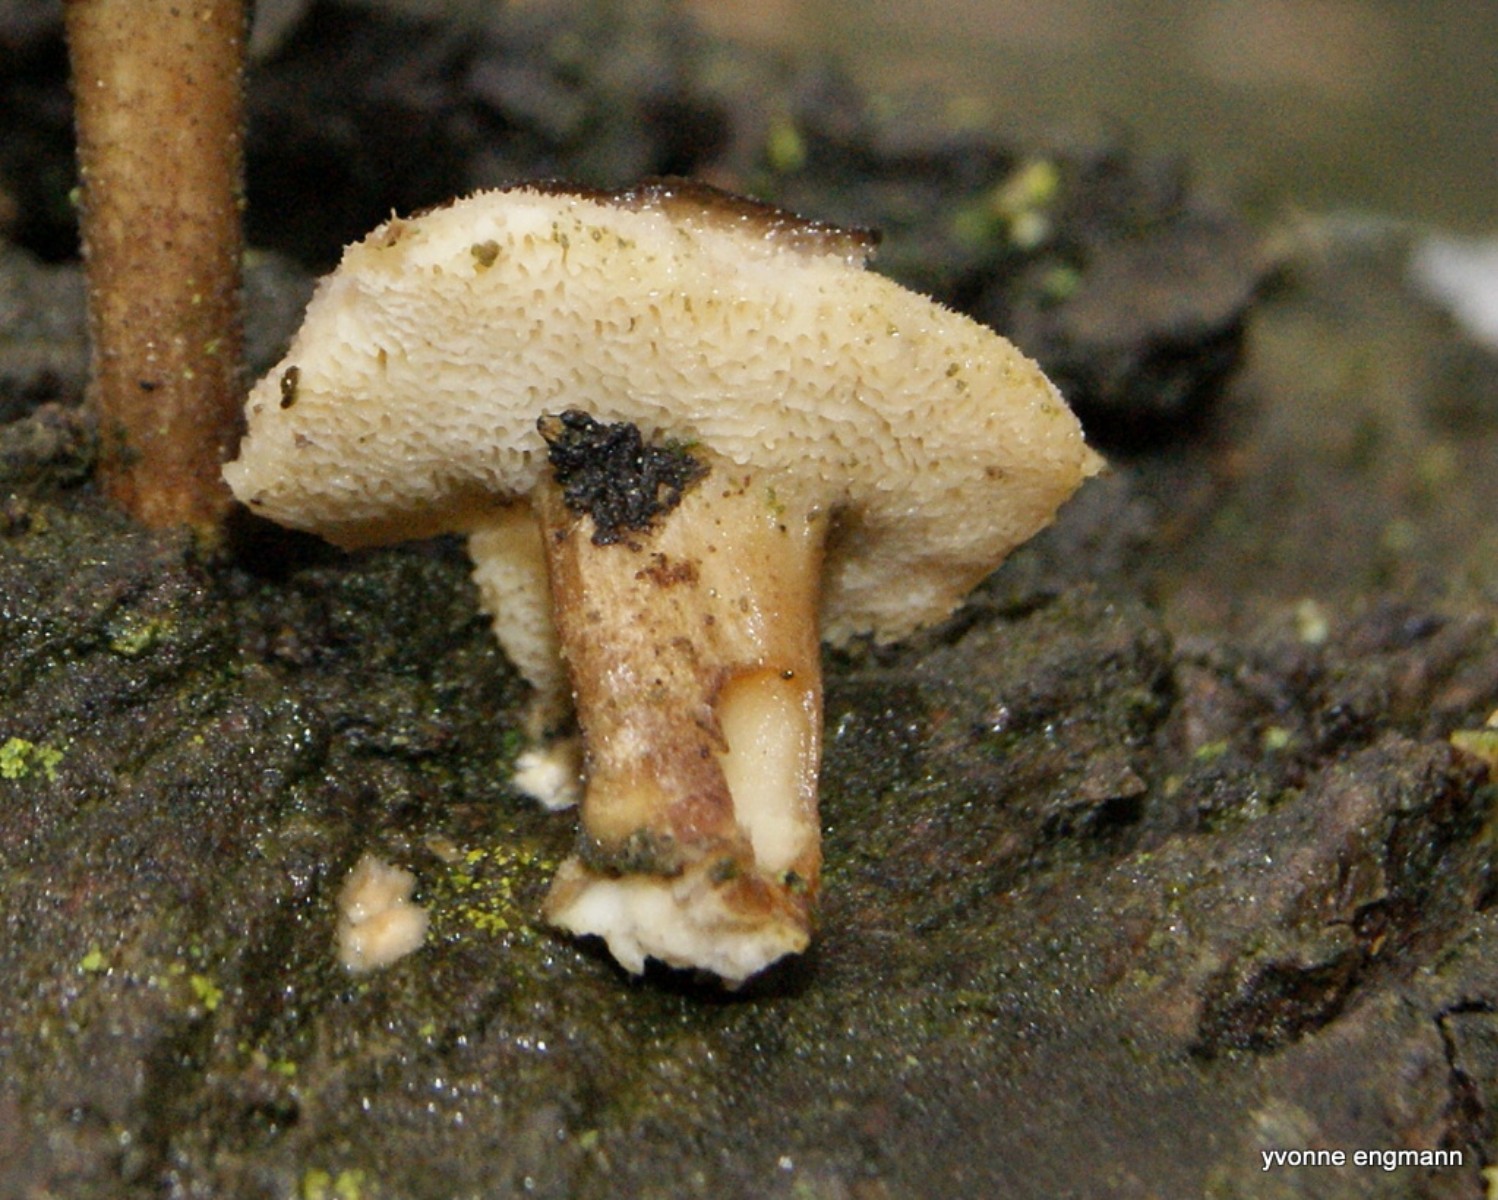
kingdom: Fungi
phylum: Basidiomycota
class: Agaricomycetes
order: Polyporales
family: Polyporaceae
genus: Lentinus
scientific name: Lentinus brumalis
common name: vinter-stilkporesvamp
